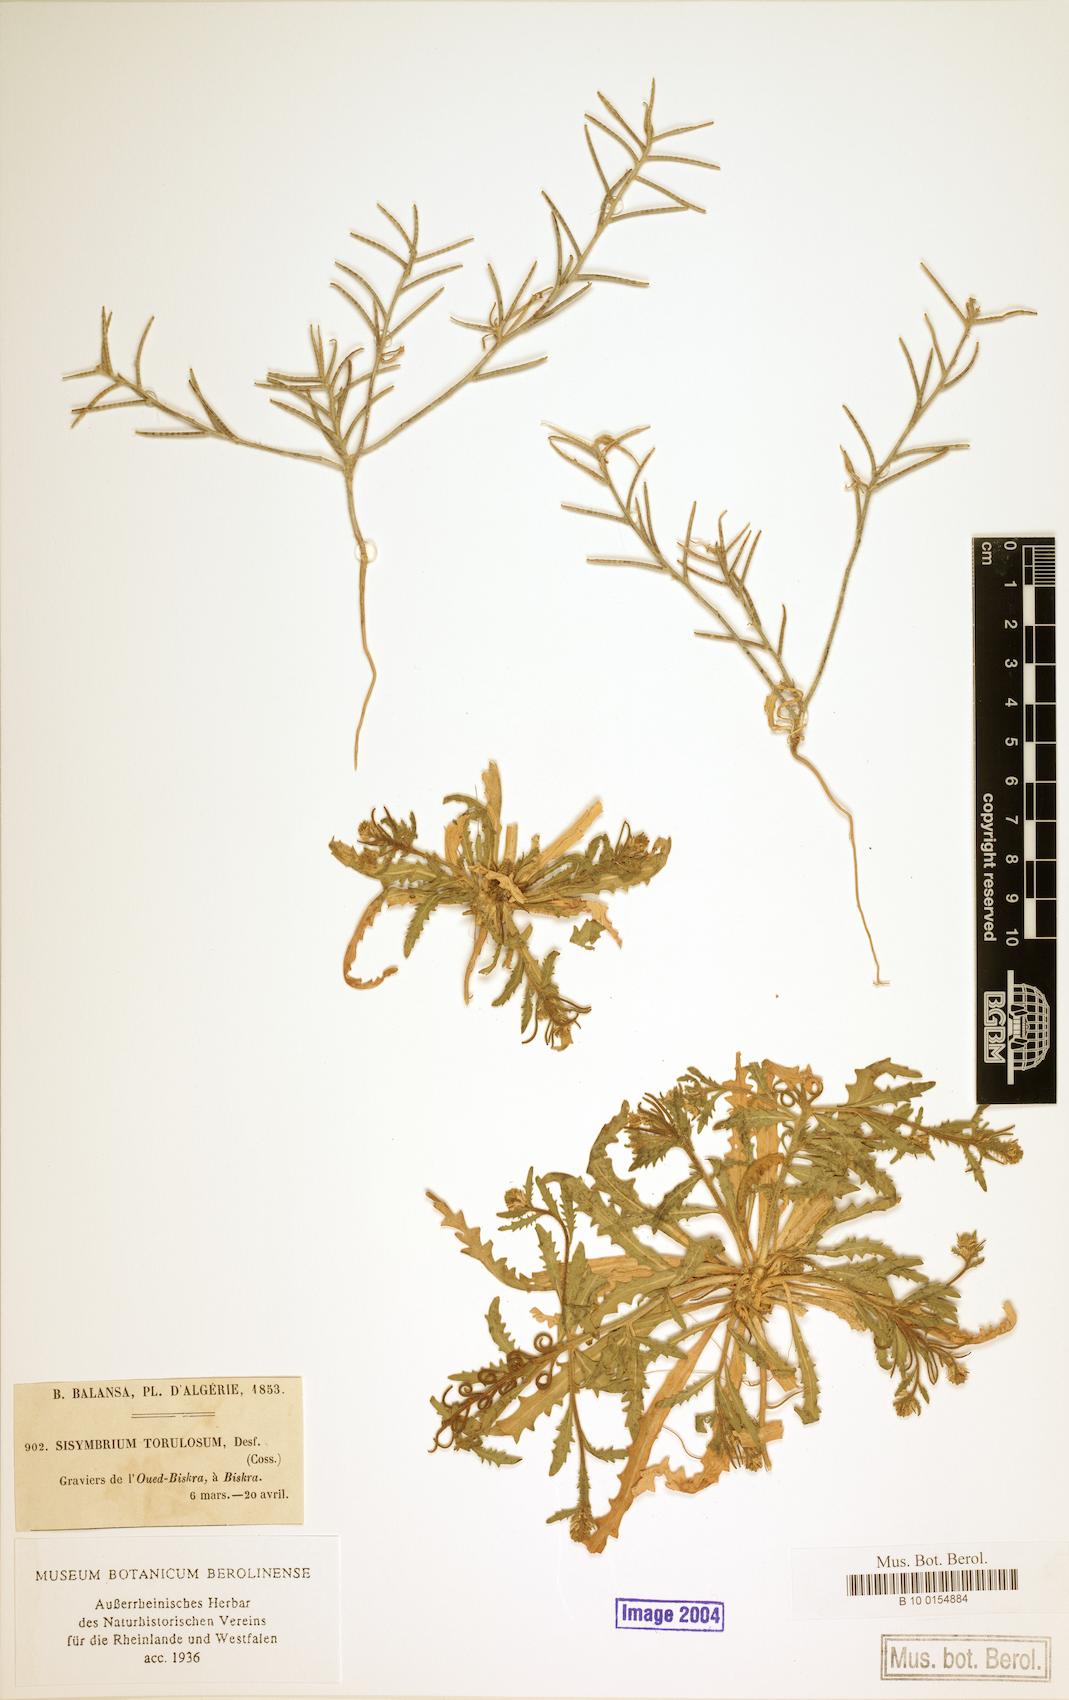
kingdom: Plantae
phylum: Tracheophyta
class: Magnoliopsida
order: Brassicales
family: Brassicaceae
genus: Neotorularia
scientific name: Neotorularia torulosa
